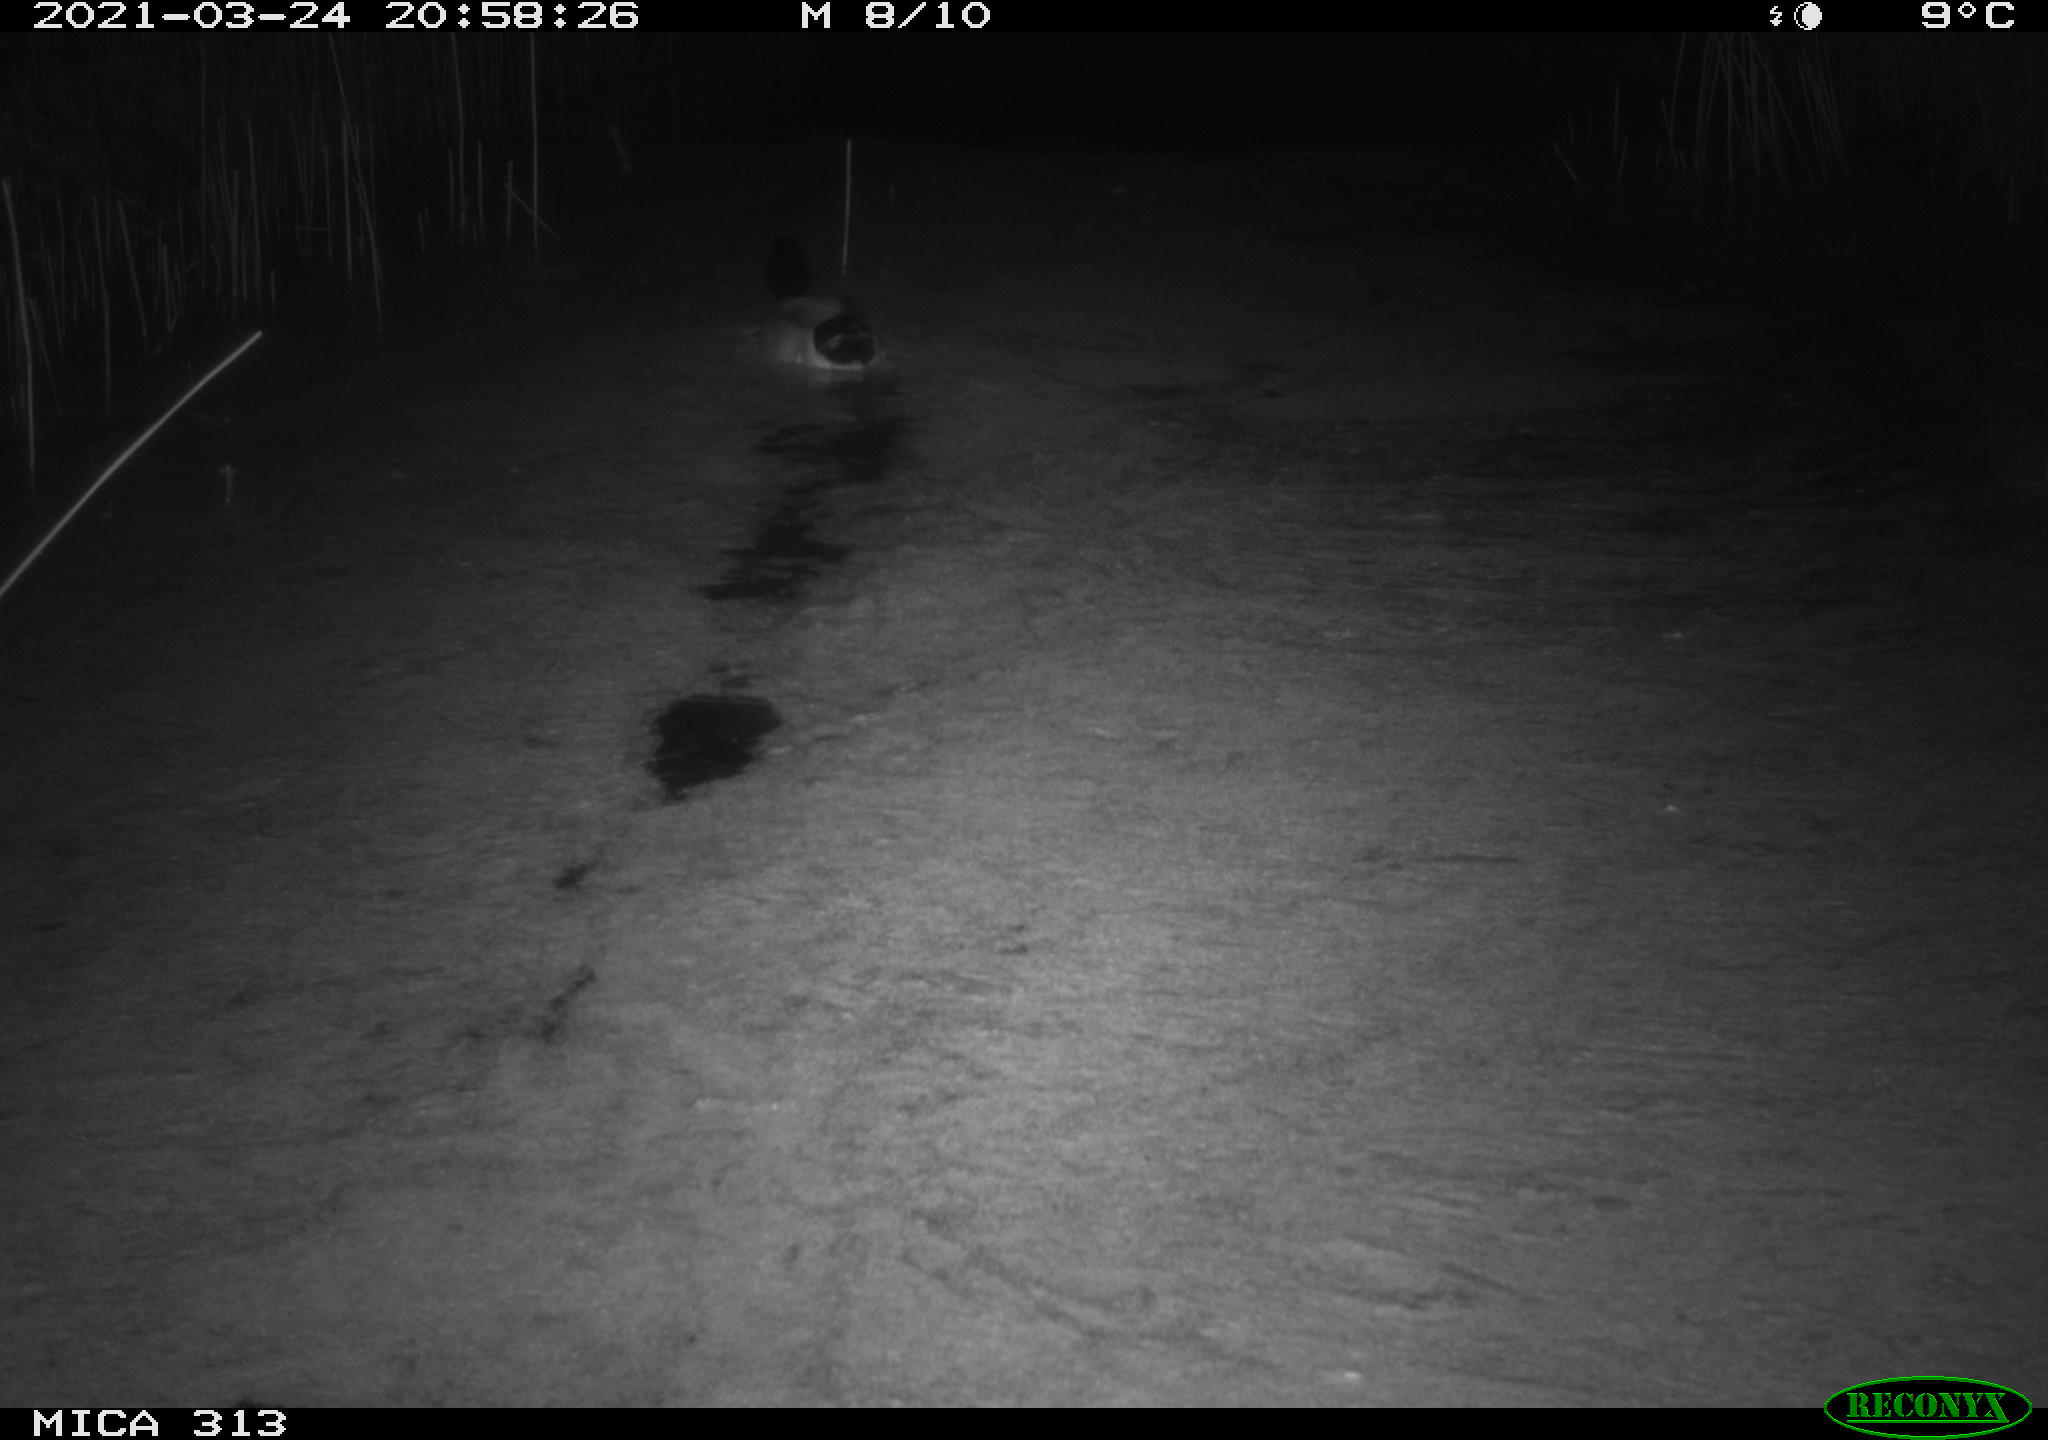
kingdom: Animalia
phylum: Chordata
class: Aves
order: Anseriformes
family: Anatidae
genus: Anas
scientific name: Anas platyrhynchos
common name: Mallard
